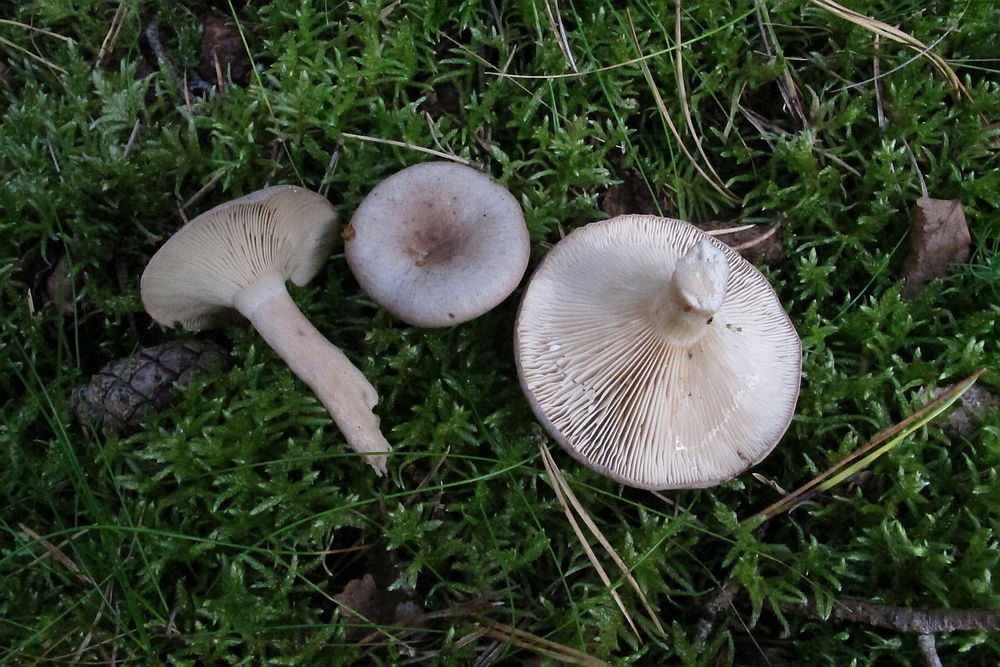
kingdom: Fungi
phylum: Basidiomycota
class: Agaricomycetes
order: Russulales
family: Russulaceae
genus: Lactarius
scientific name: Lactarius vietus
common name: violetgrå mælkehat
